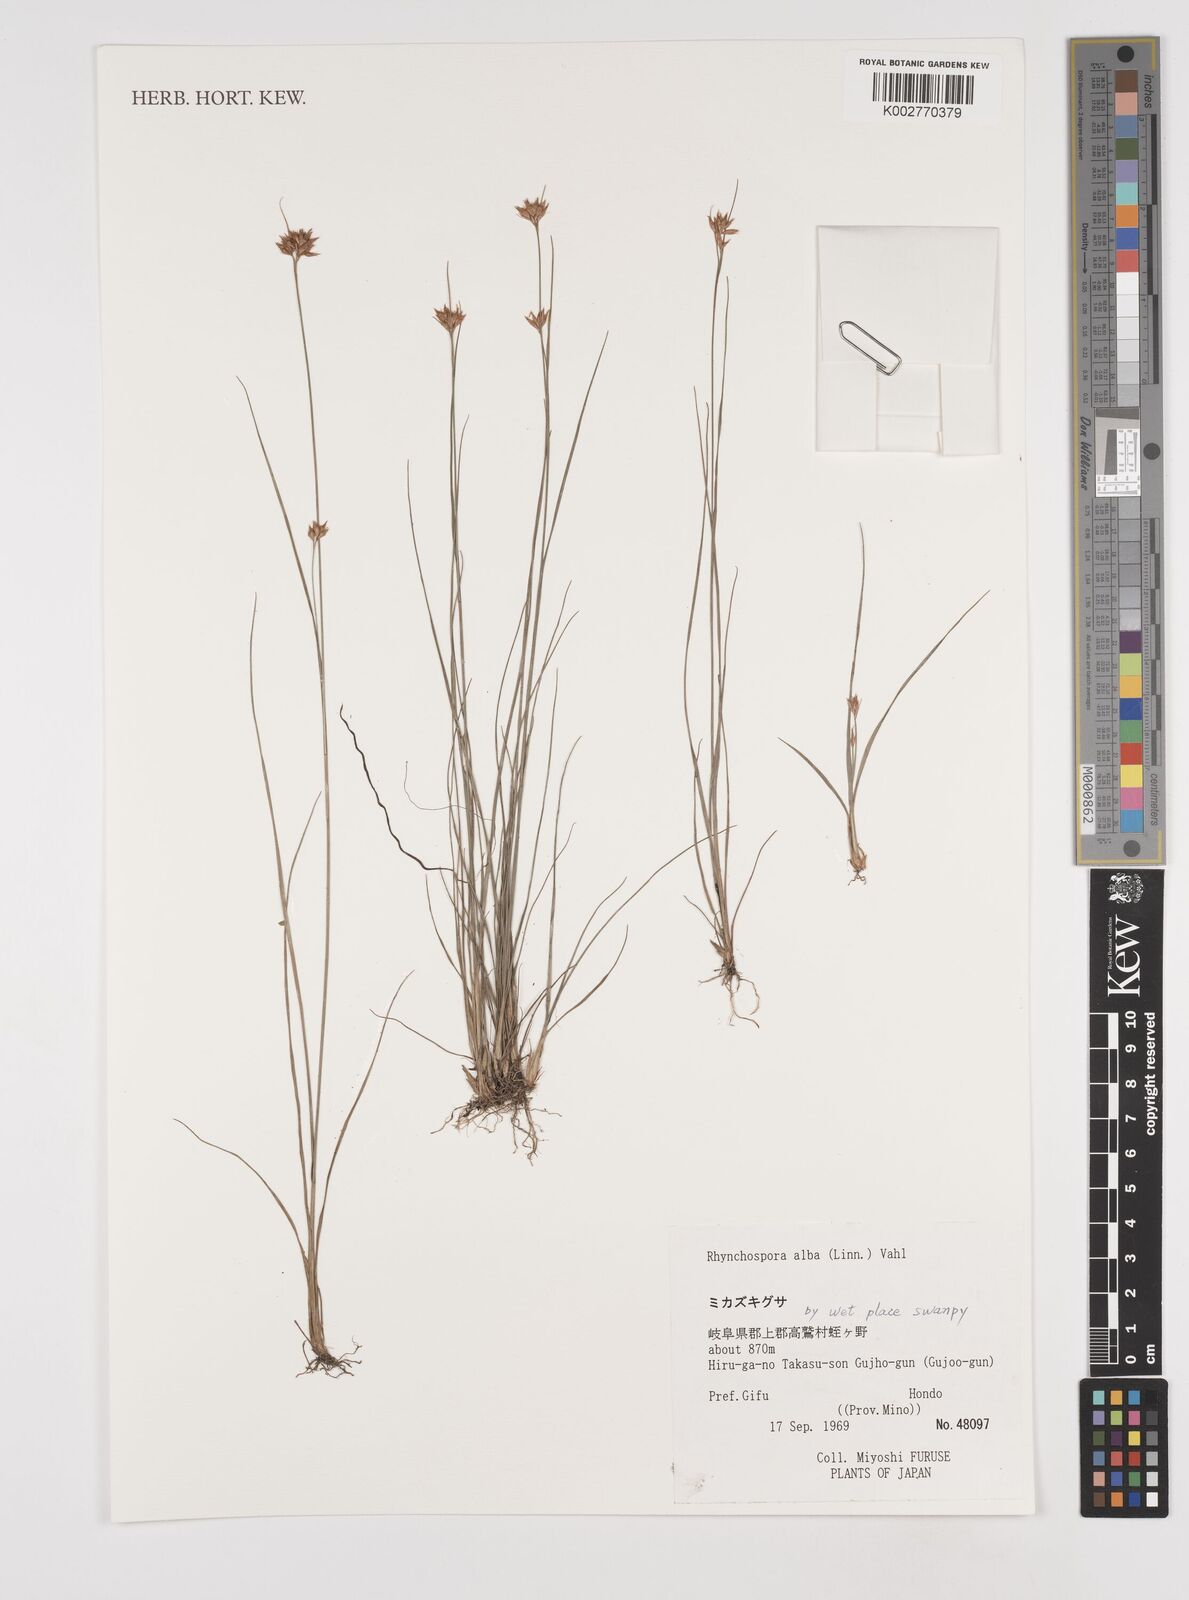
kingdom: Plantae
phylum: Tracheophyta
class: Liliopsida
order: Poales
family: Cyperaceae
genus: Rhynchospora
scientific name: Rhynchospora alba
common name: White beak-sedge
